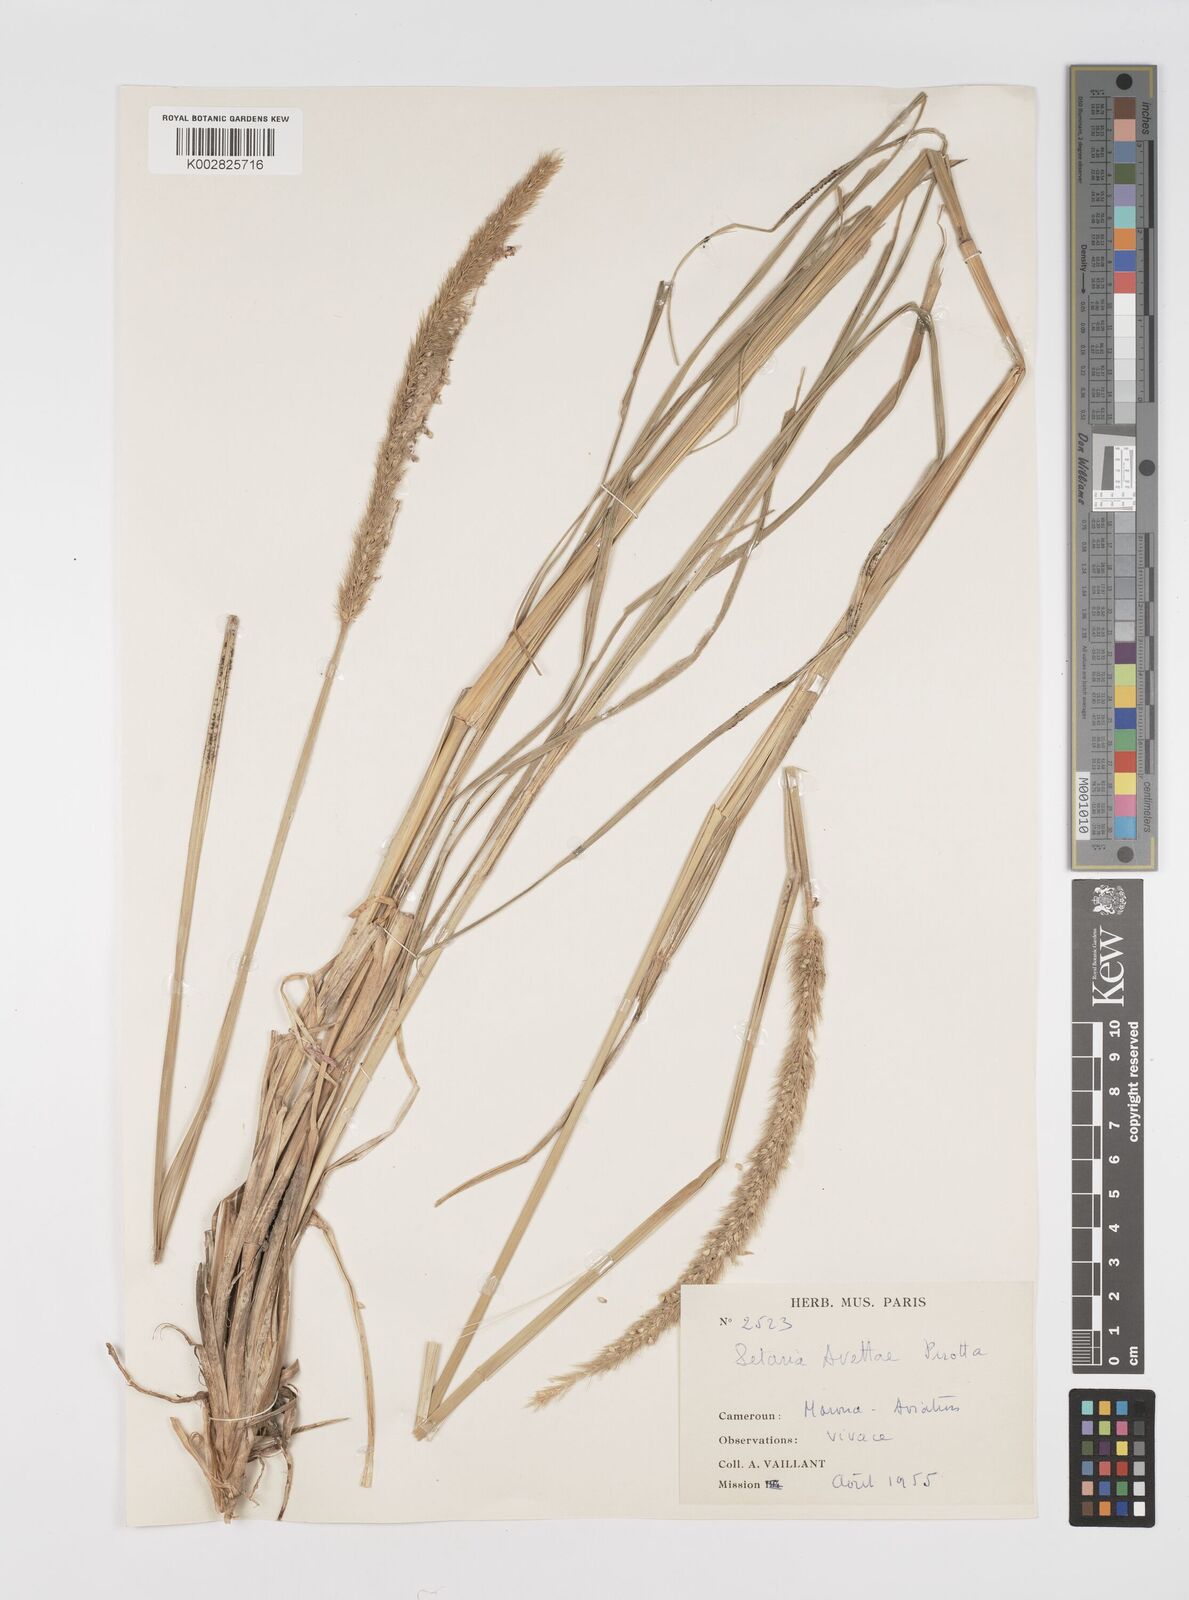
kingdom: Plantae
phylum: Tracheophyta
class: Liliopsida
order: Poales
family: Poaceae
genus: Setaria
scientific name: Setaria incrassata
